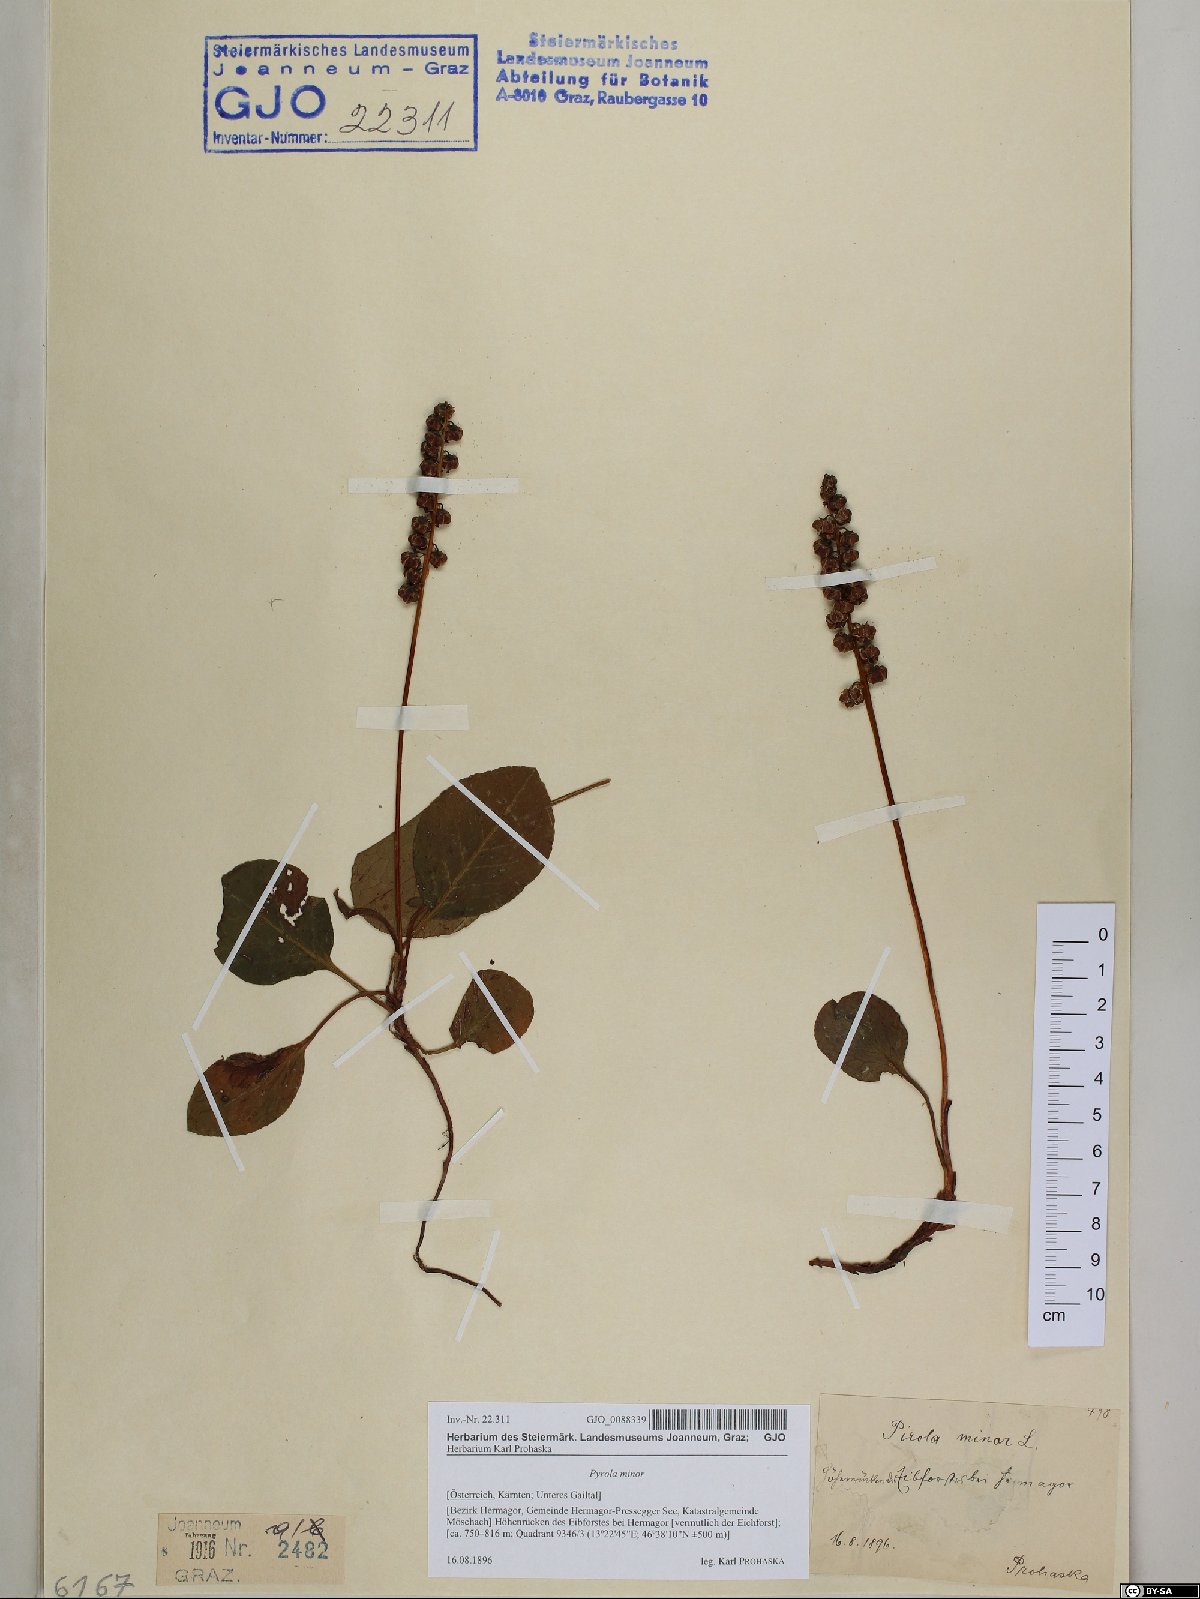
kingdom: Plantae
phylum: Tracheophyta
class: Magnoliopsida
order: Ericales
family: Ericaceae
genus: Pyrola
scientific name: Pyrola minor
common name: Common wintergreen
